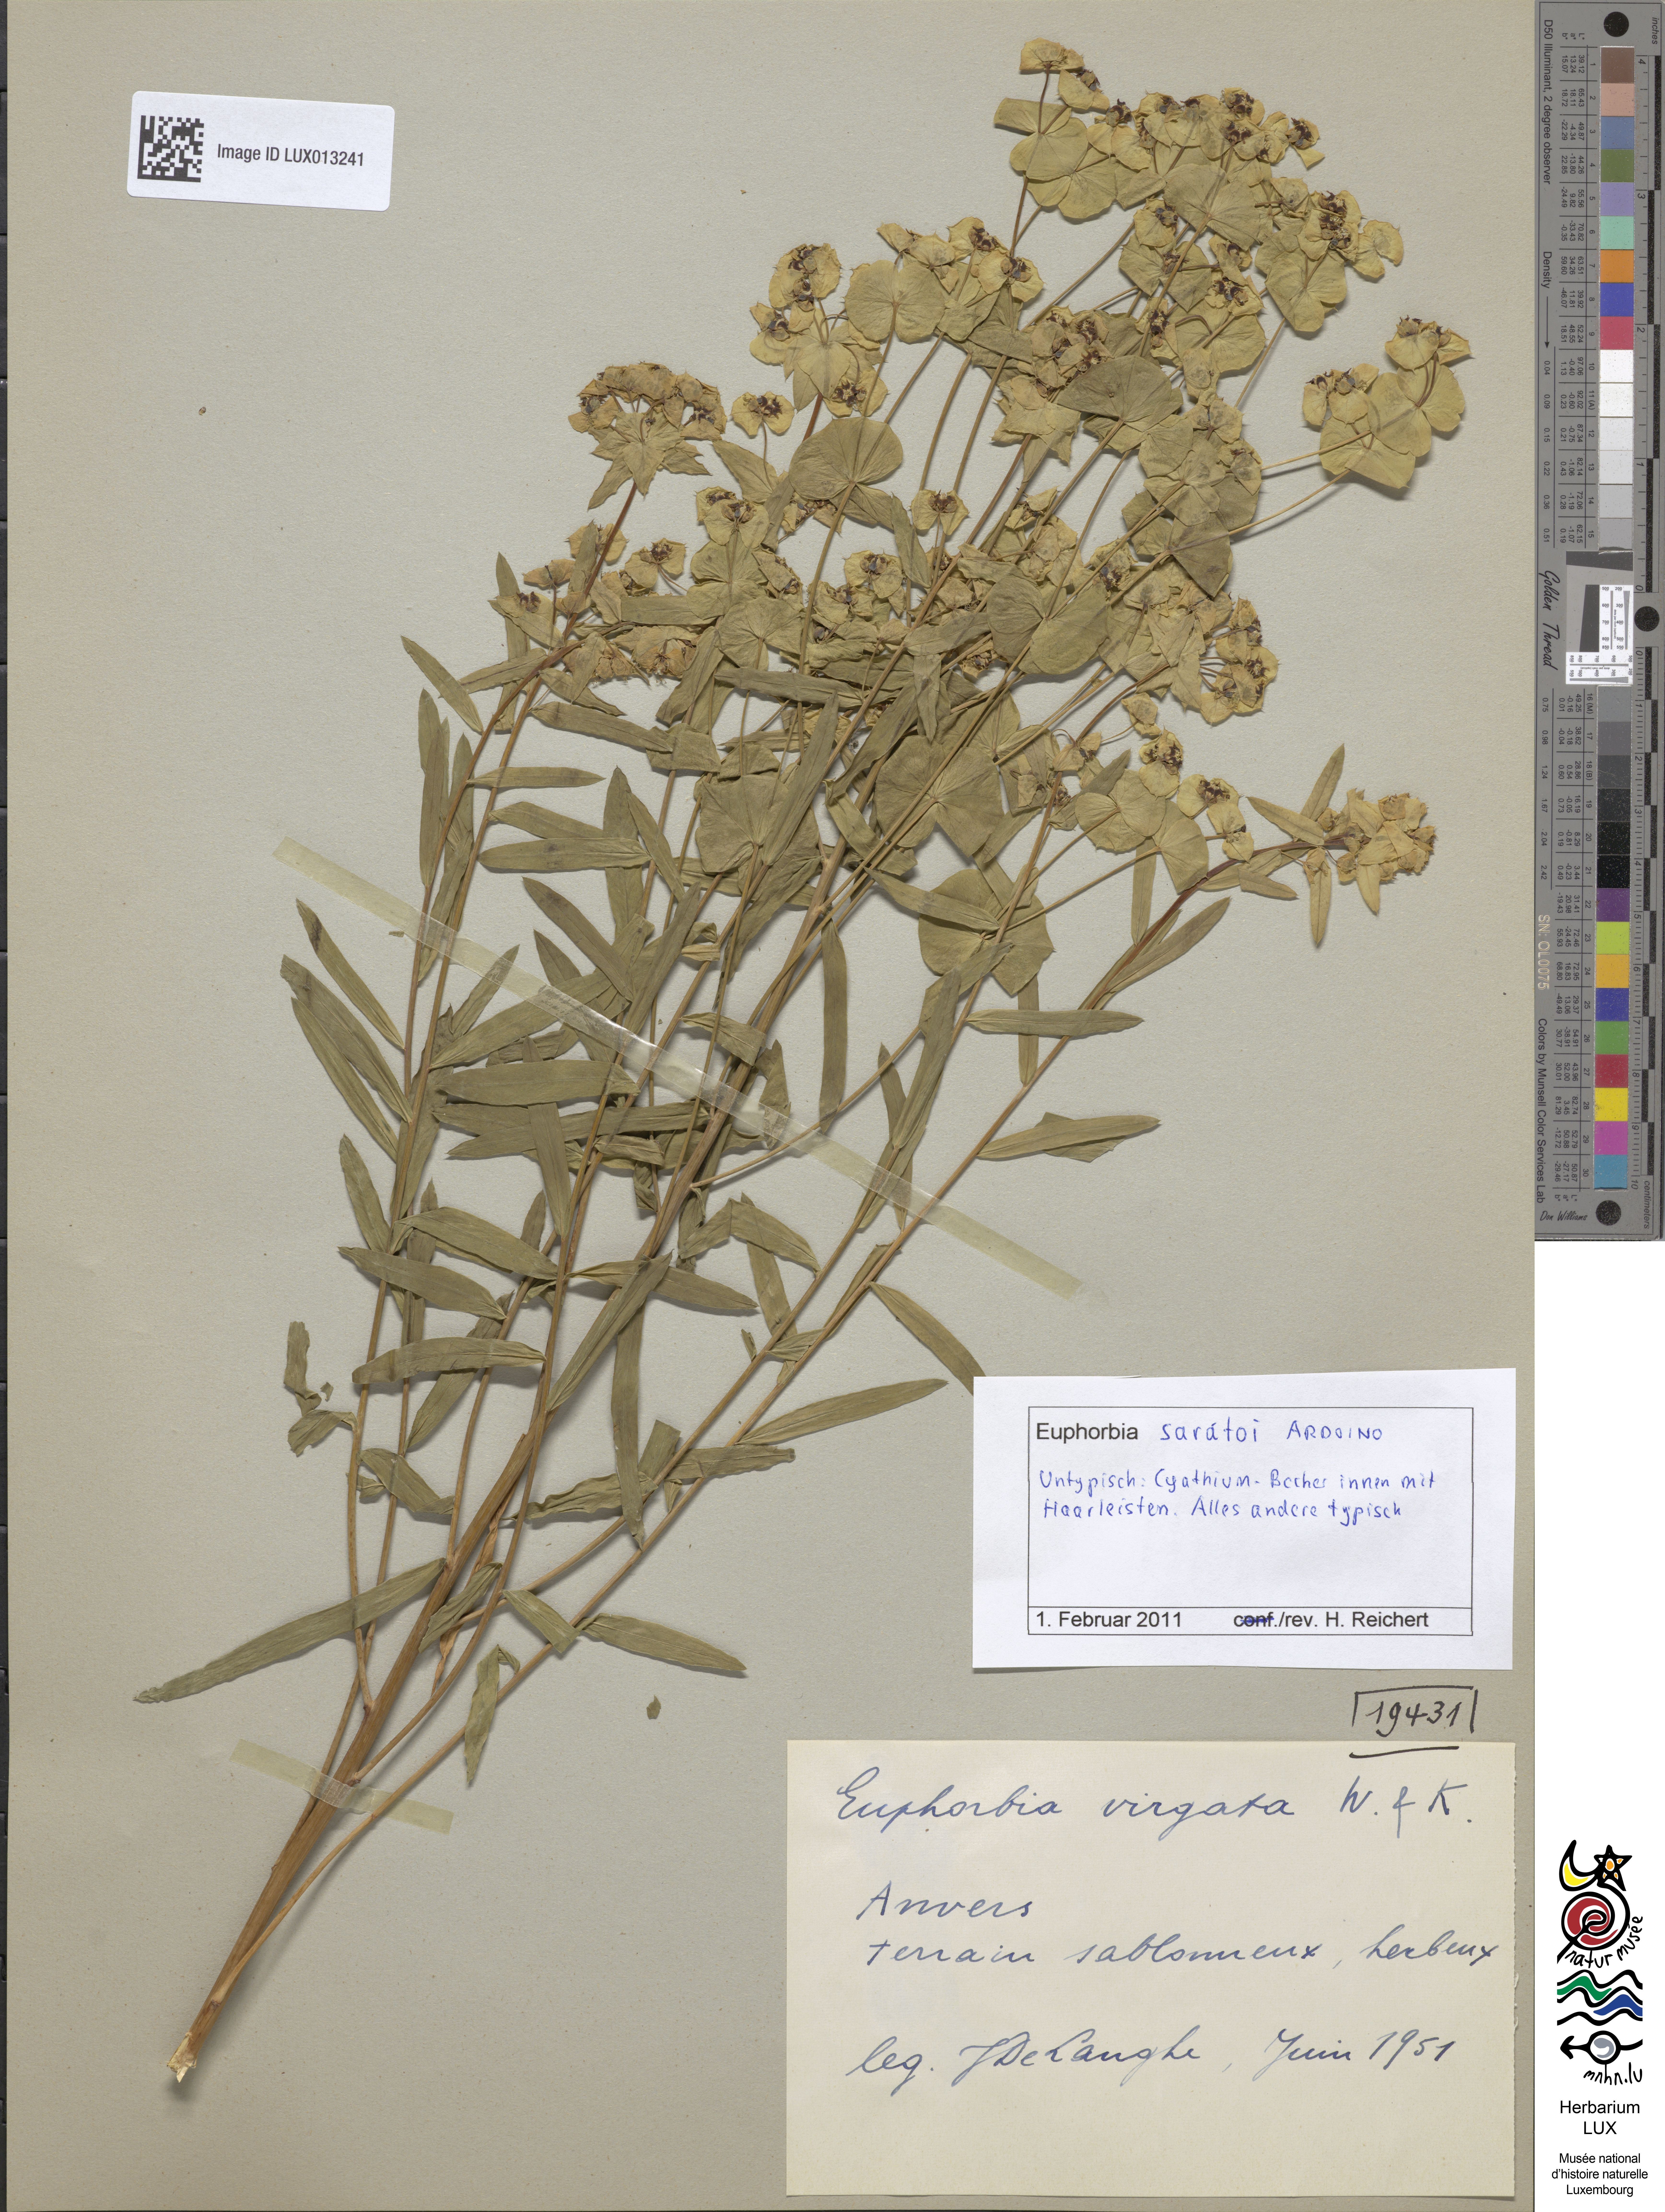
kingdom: Plantae
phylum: Tracheophyta
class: Magnoliopsida
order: Malpighiales
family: Euphorbiaceae
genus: Euphorbia
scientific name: Euphorbia saratoi
